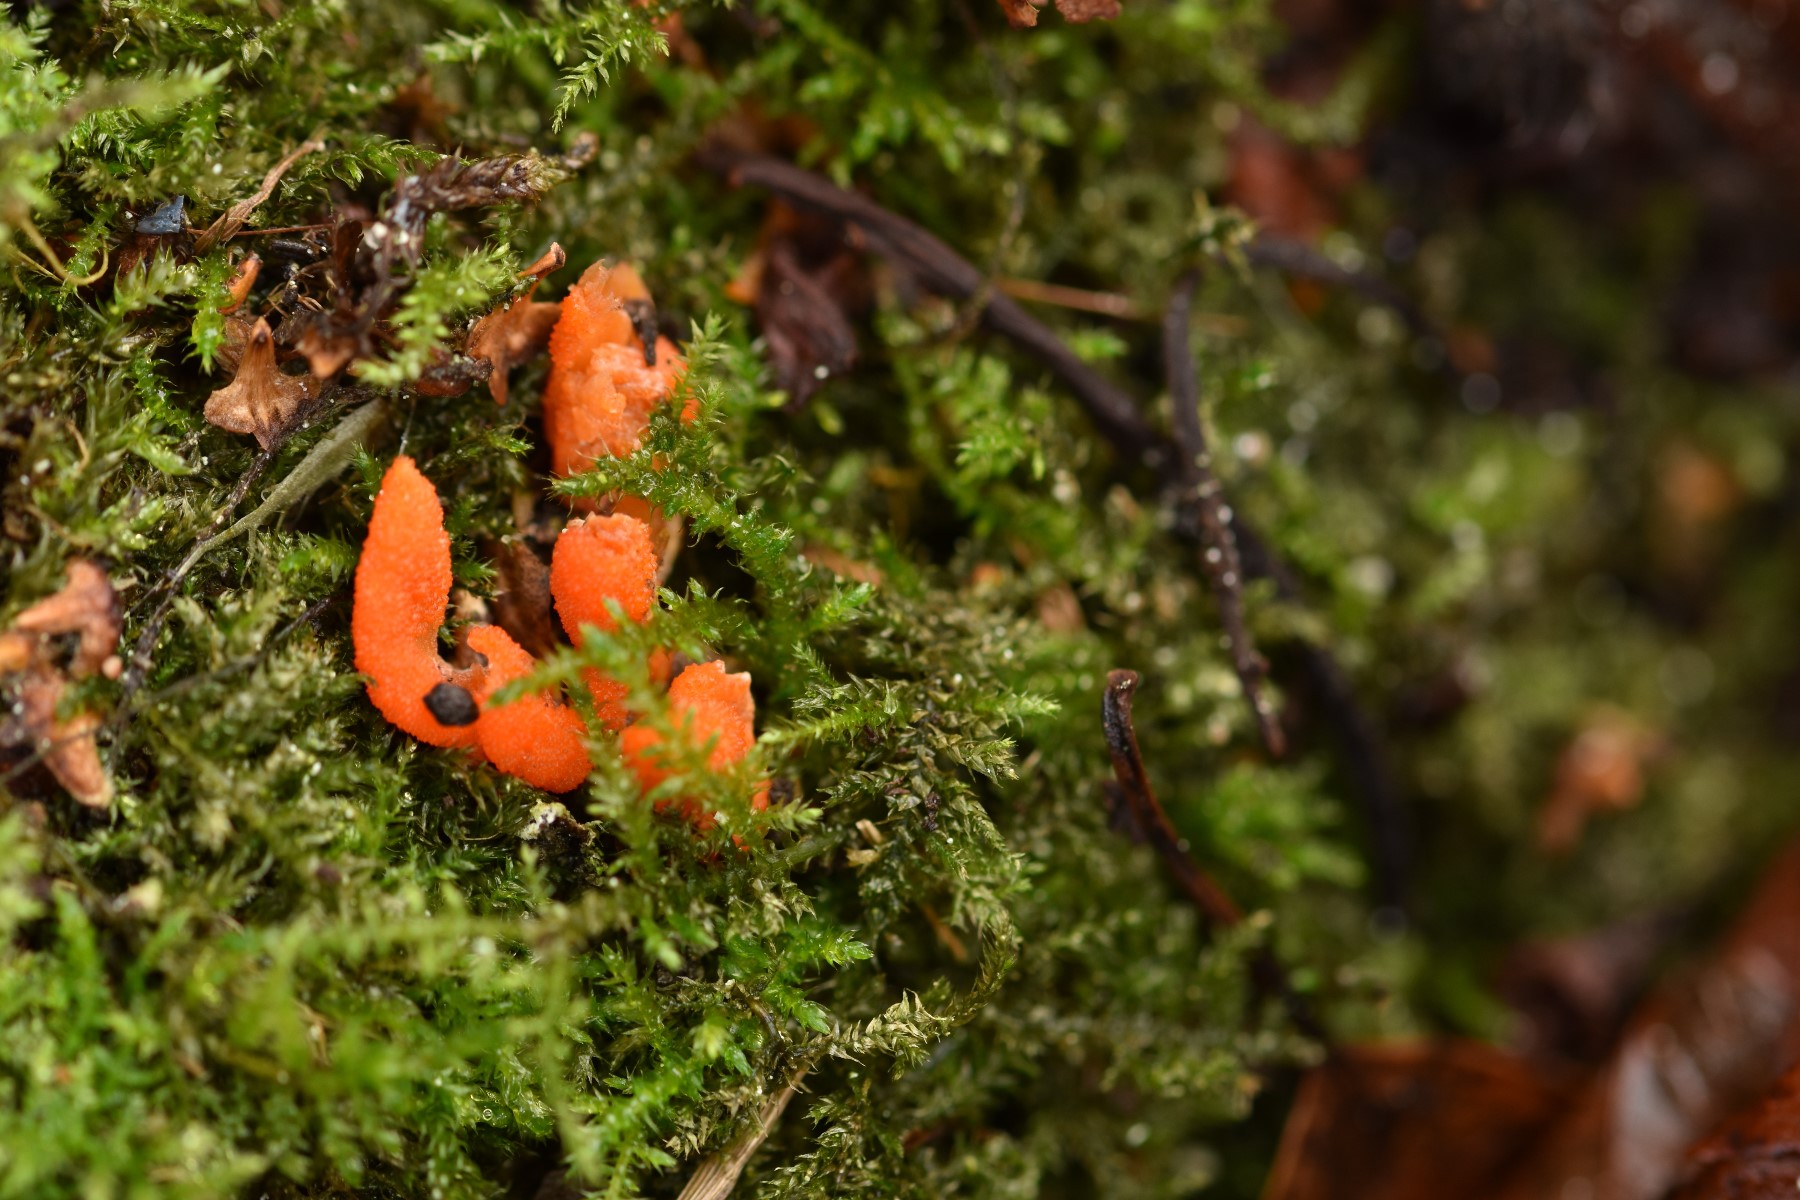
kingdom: Fungi
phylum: Ascomycota
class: Sordariomycetes
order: Hypocreales
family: Cordycipitaceae
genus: Cordyceps
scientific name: Cordyceps militaris
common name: puppe-snyltekølle
